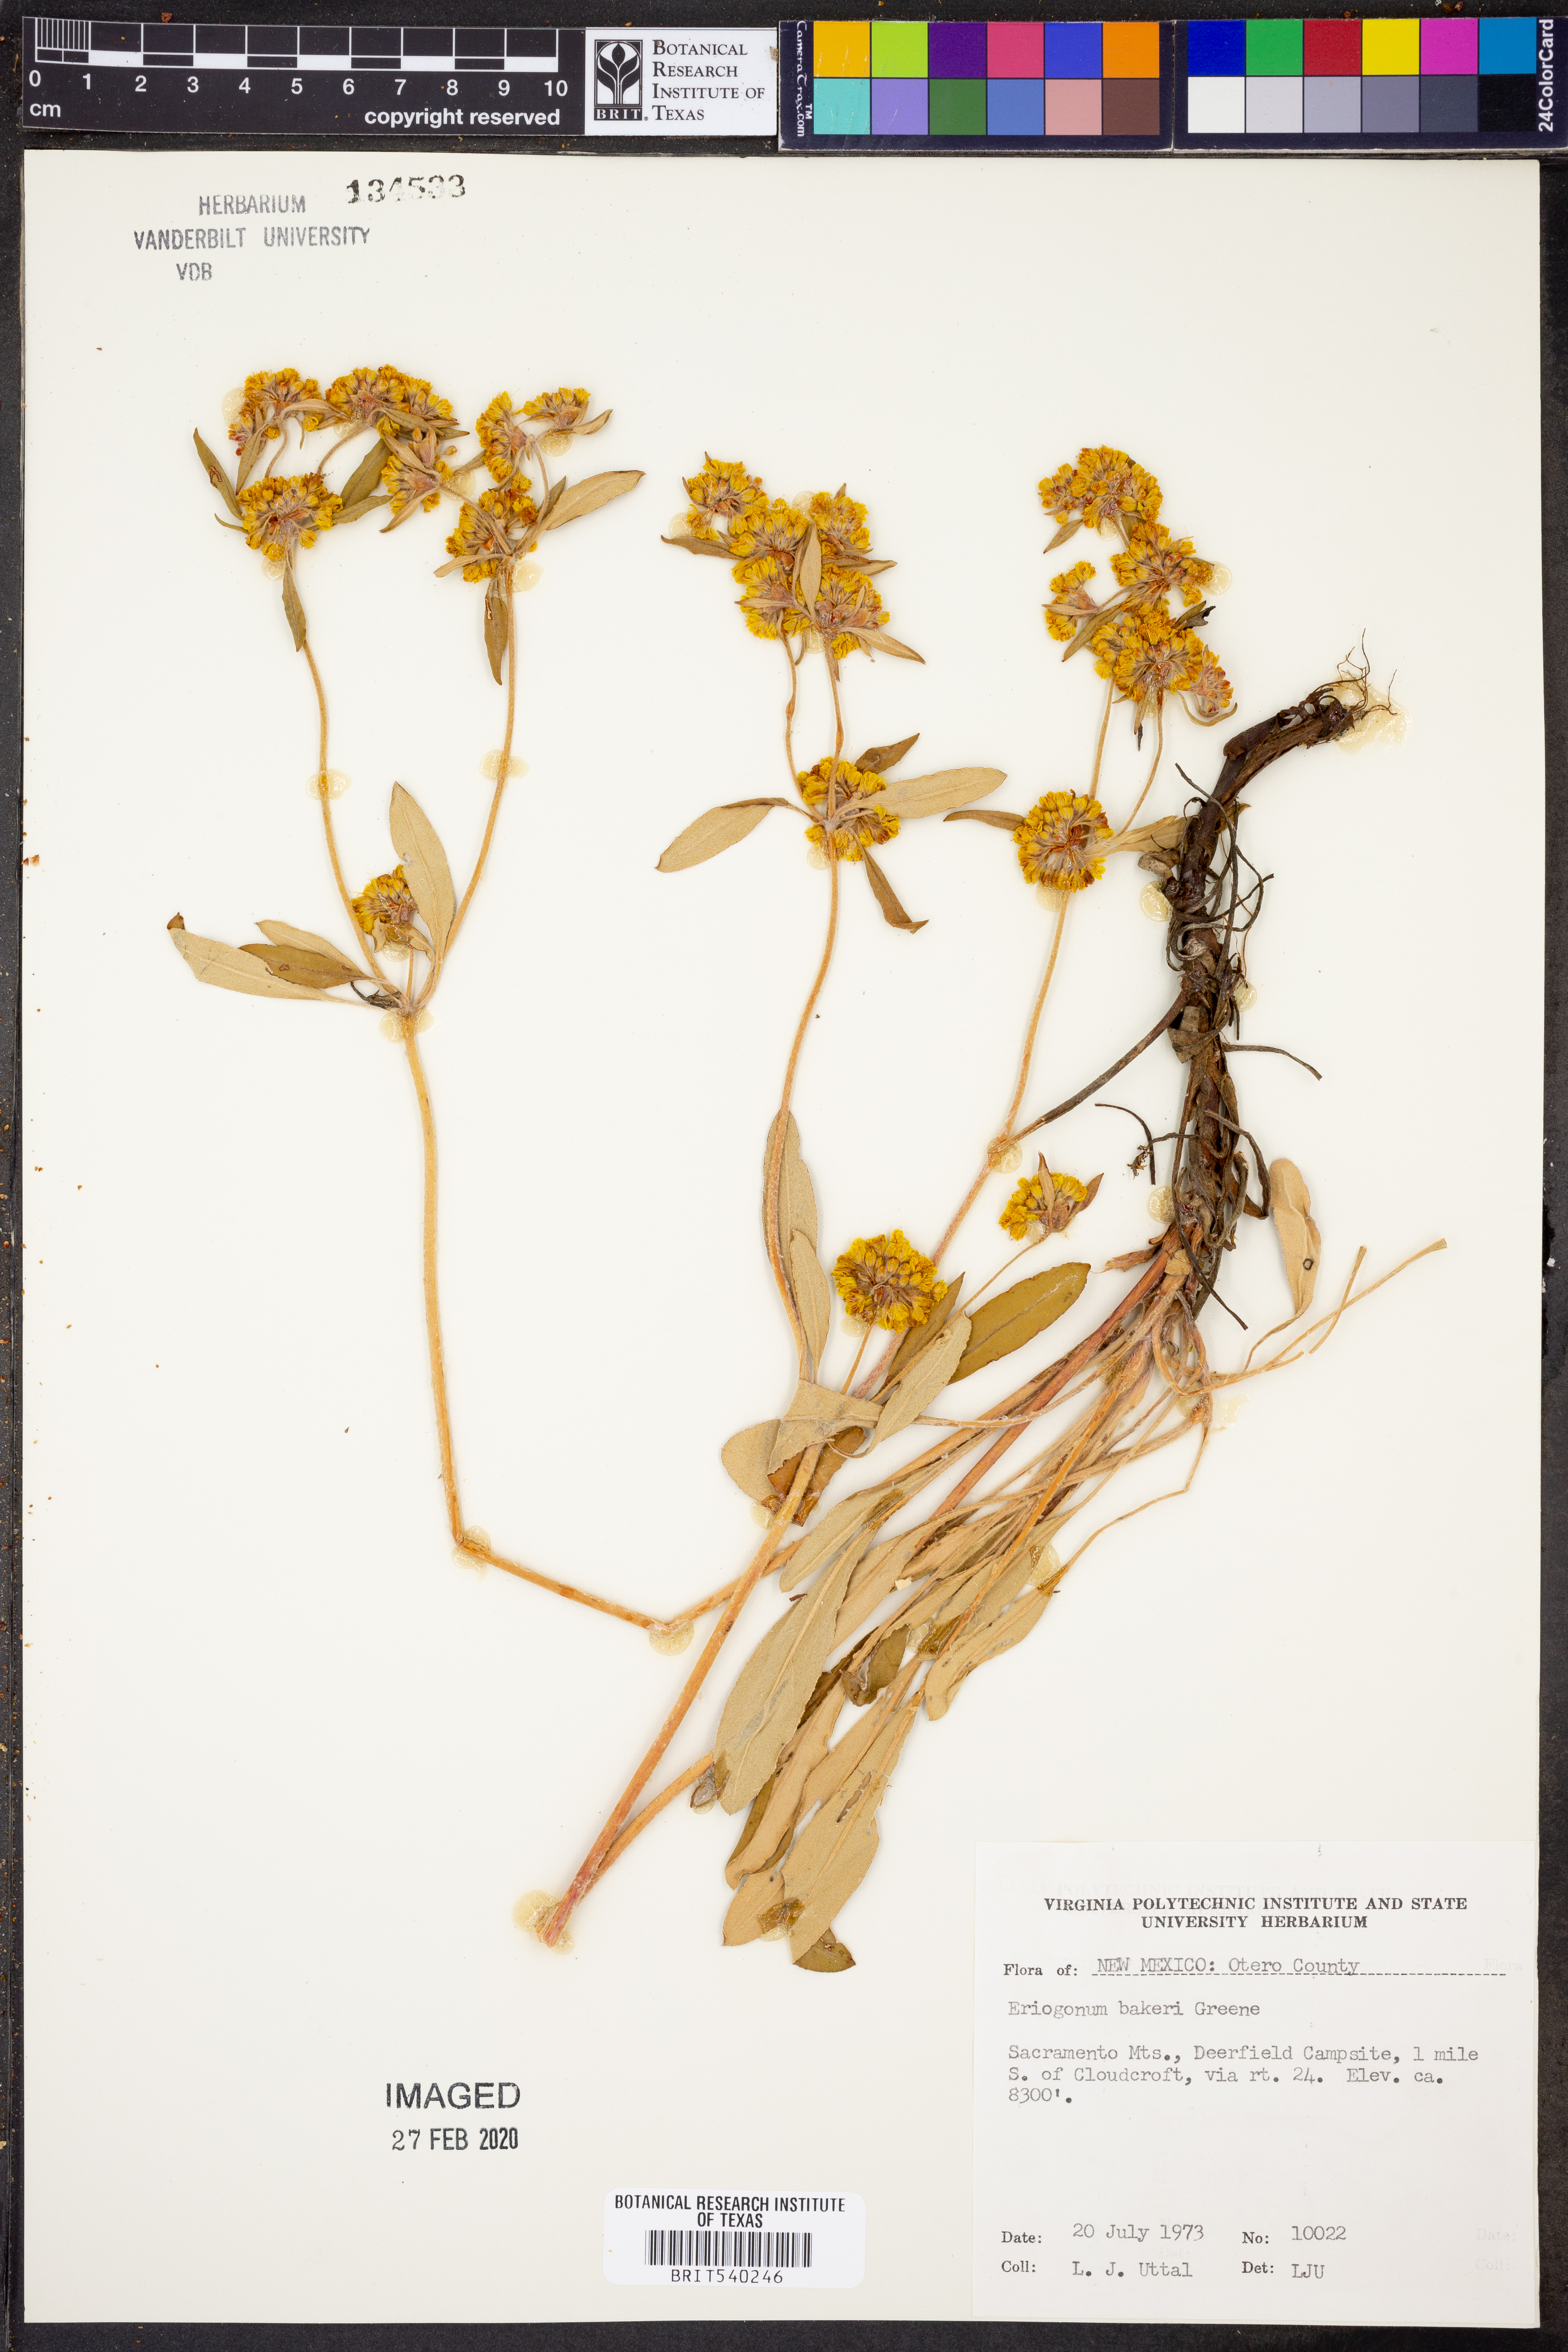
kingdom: Plantae
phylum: Tracheophyta
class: Magnoliopsida
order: Caryophyllales
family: Polygonaceae
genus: Eriogonum
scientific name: Eriogonum arcuatum
